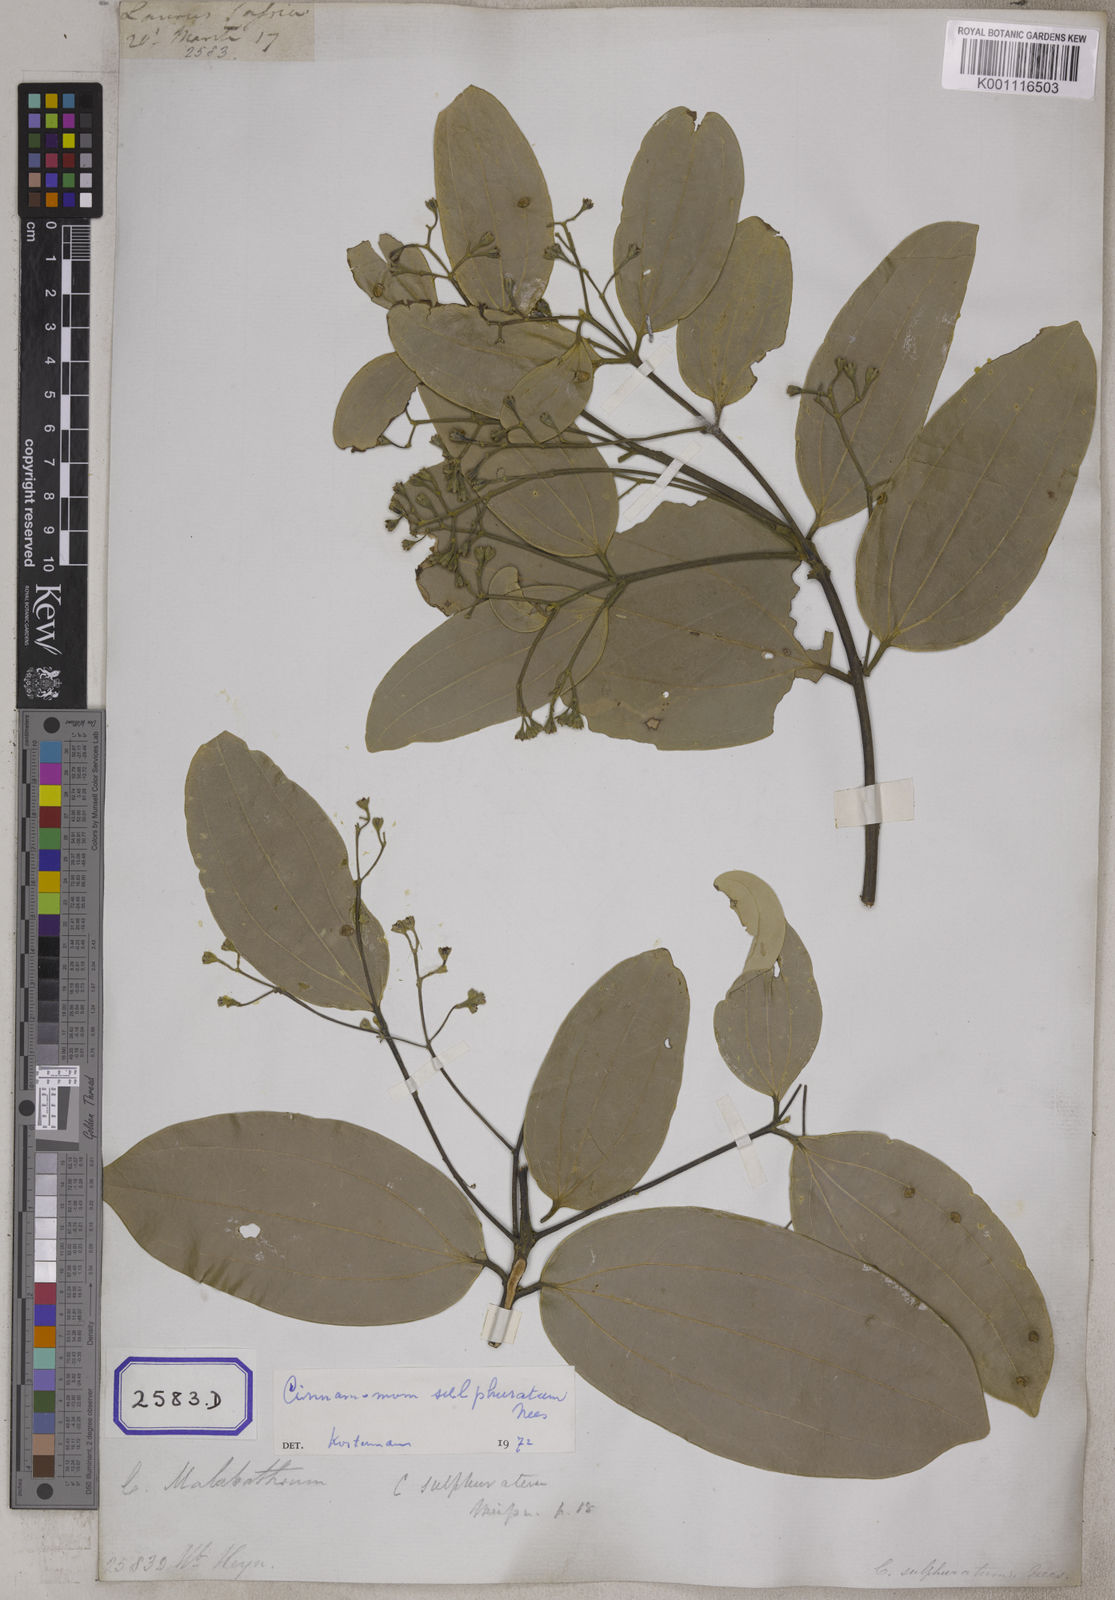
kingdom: Plantae
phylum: Tracheophyta
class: Magnoliopsida
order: Laurales
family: Lauraceae
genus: Cinnamomum
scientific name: Cinnamomum
